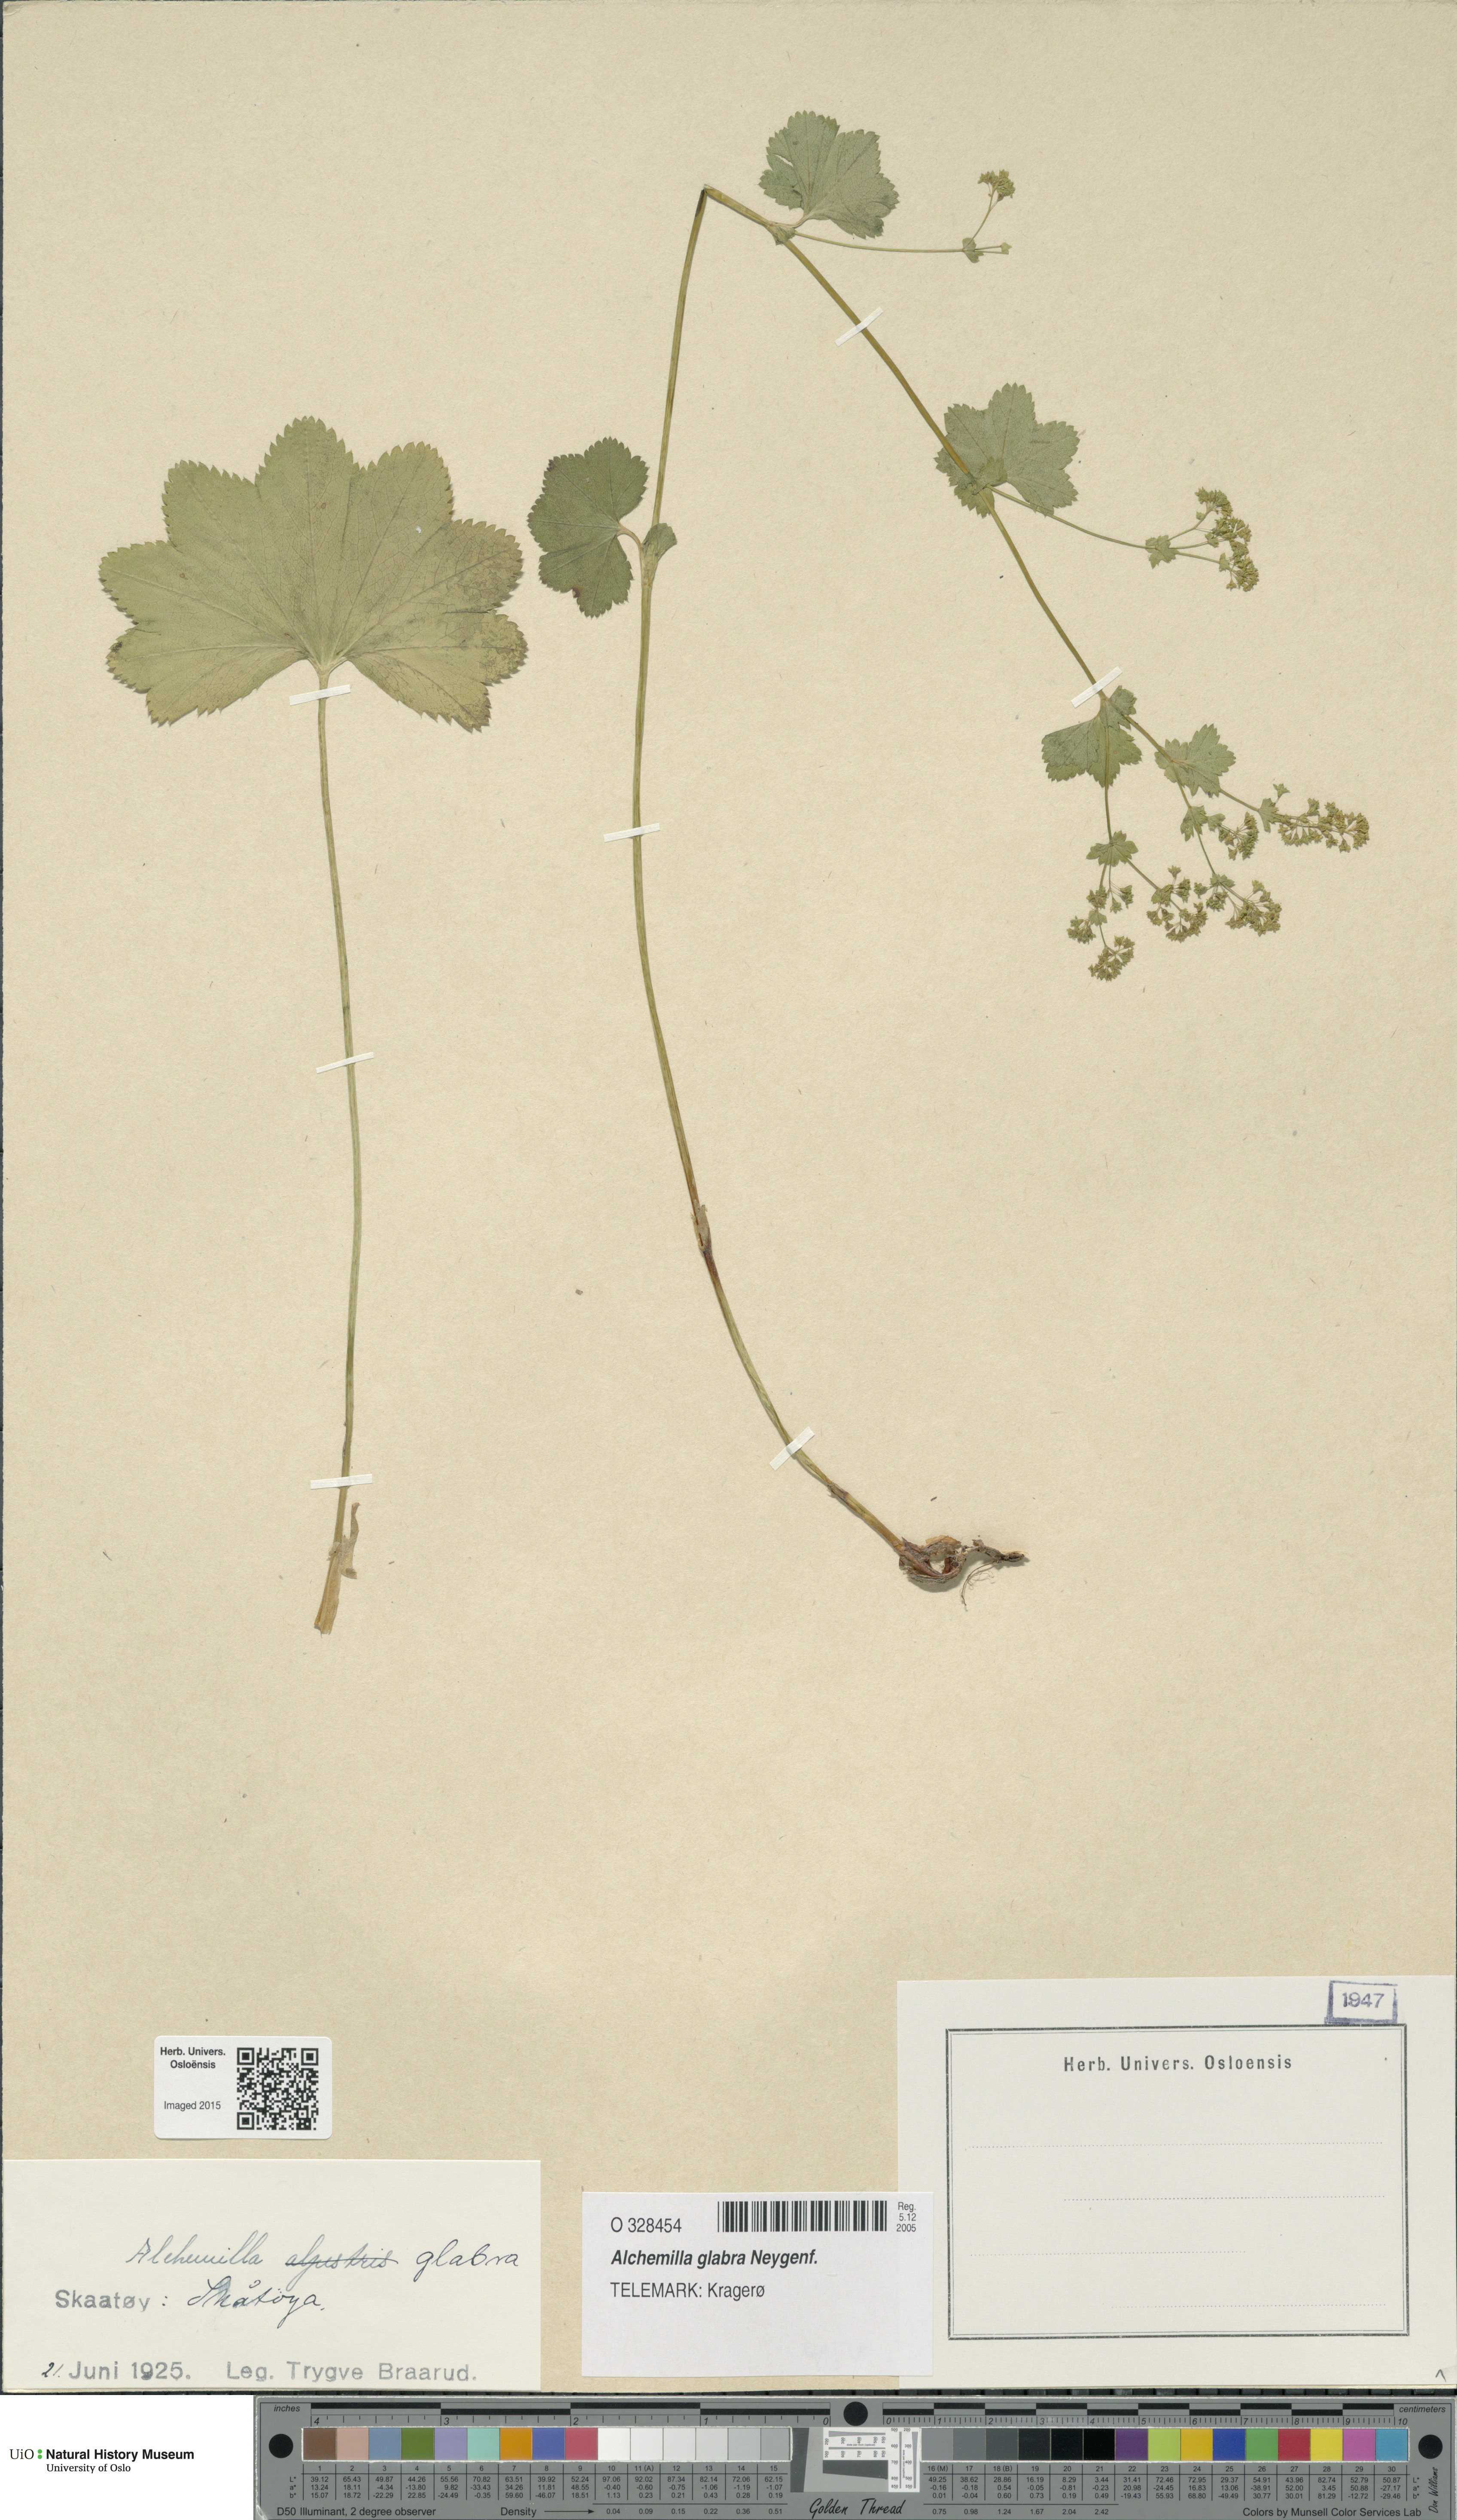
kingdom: Plantae
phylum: Tracheophyta
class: Magnoliopsida
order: Rosales
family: Rosaceae
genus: Alchemilla
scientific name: Alchemilla glabra
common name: Smooth lady's-mantle
